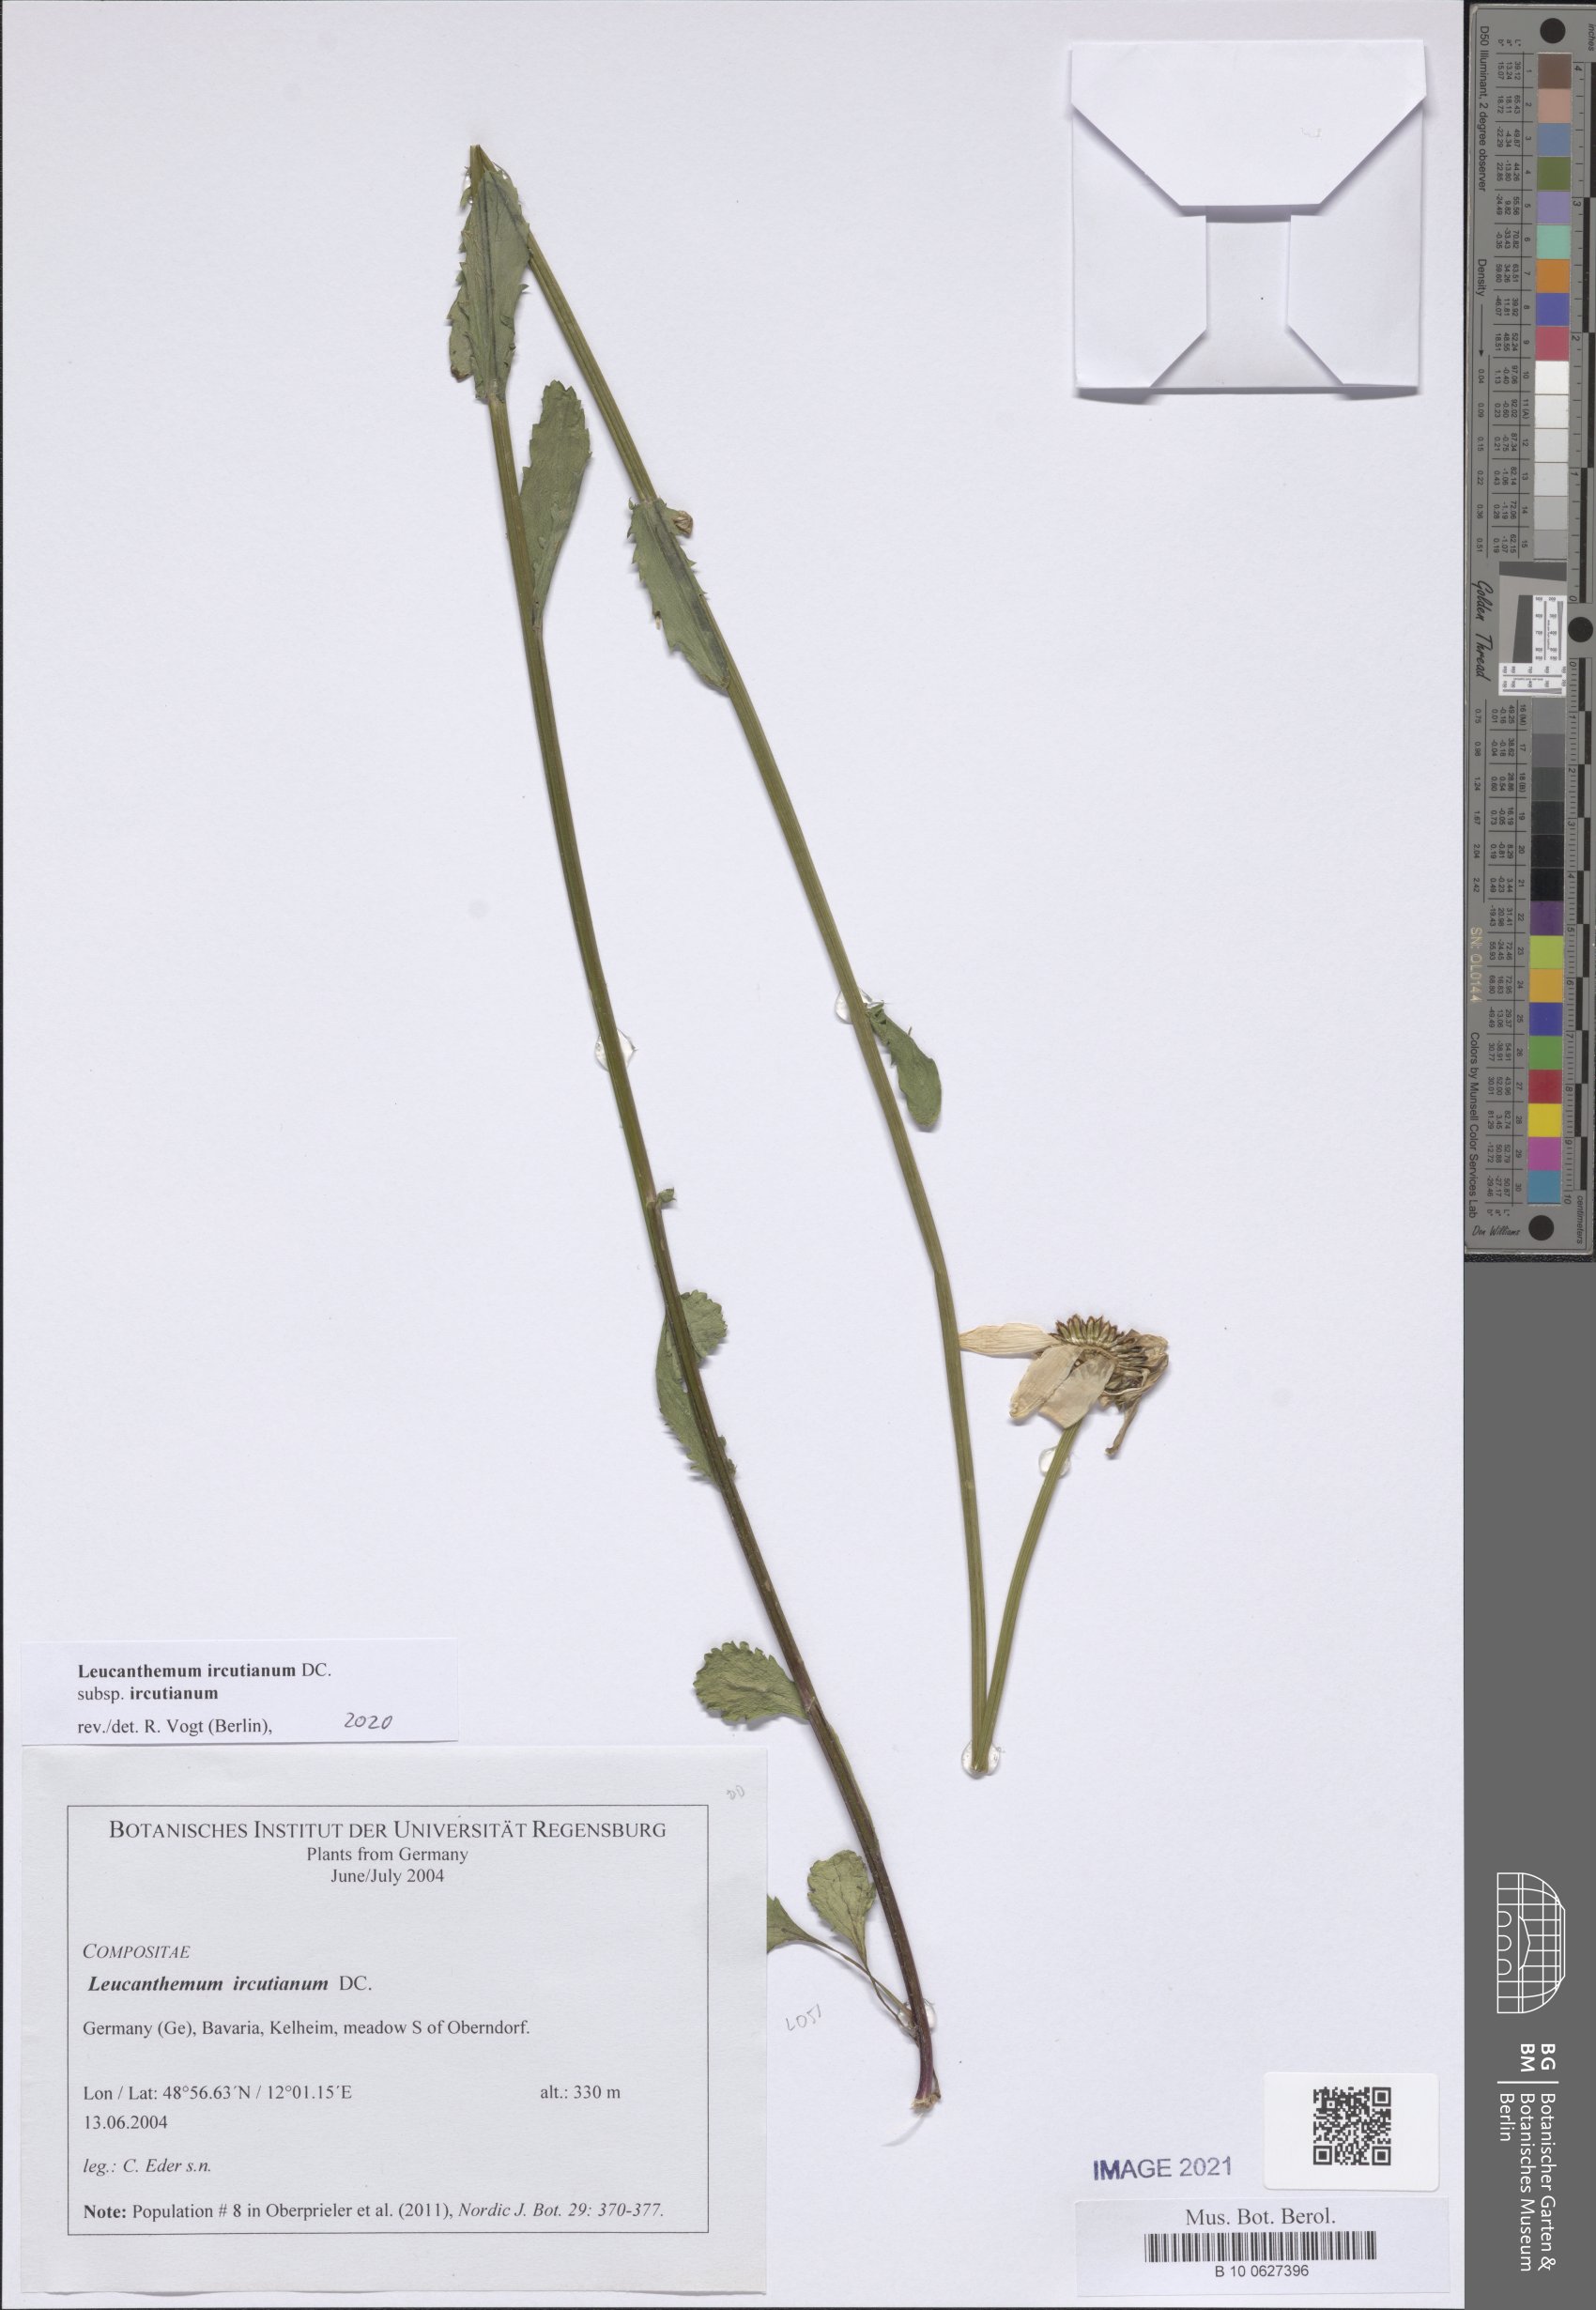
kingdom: Plantae
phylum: Tracheophyta
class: Magnoliopsida
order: Asterales
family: Asteraceae
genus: Leucanthemum
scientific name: Leucanthemum ircutianum
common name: Daisy
